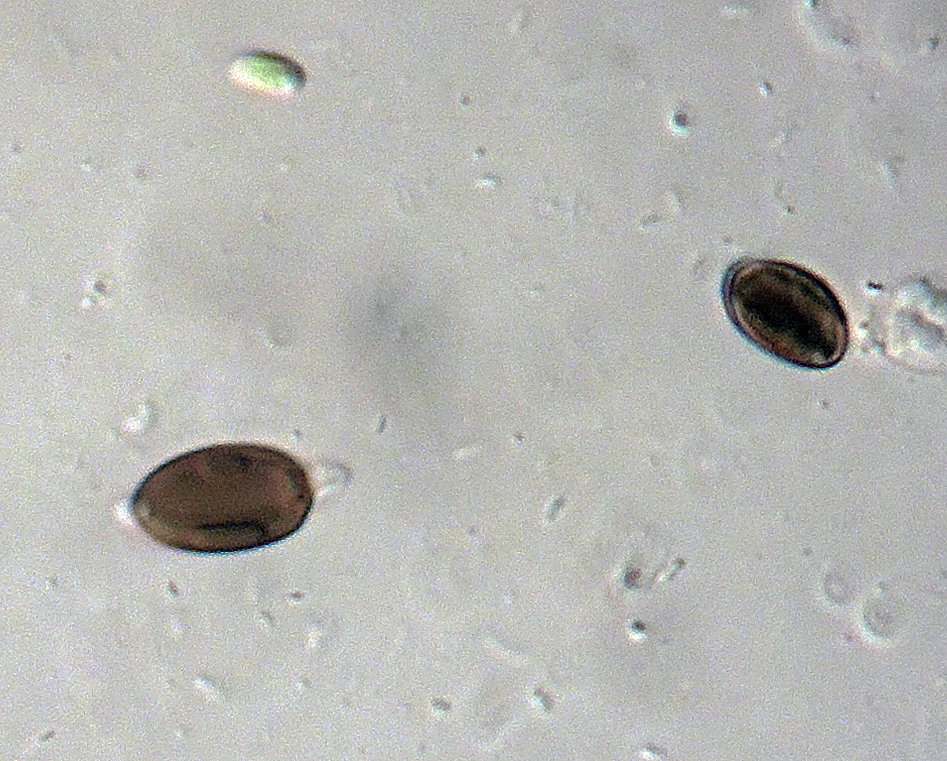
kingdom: Fungi
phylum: Ascomycota
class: Sordariomycetes
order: Xylariales
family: Xylariaceae
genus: Anthostomella
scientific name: Anthostomella phaeosticta
